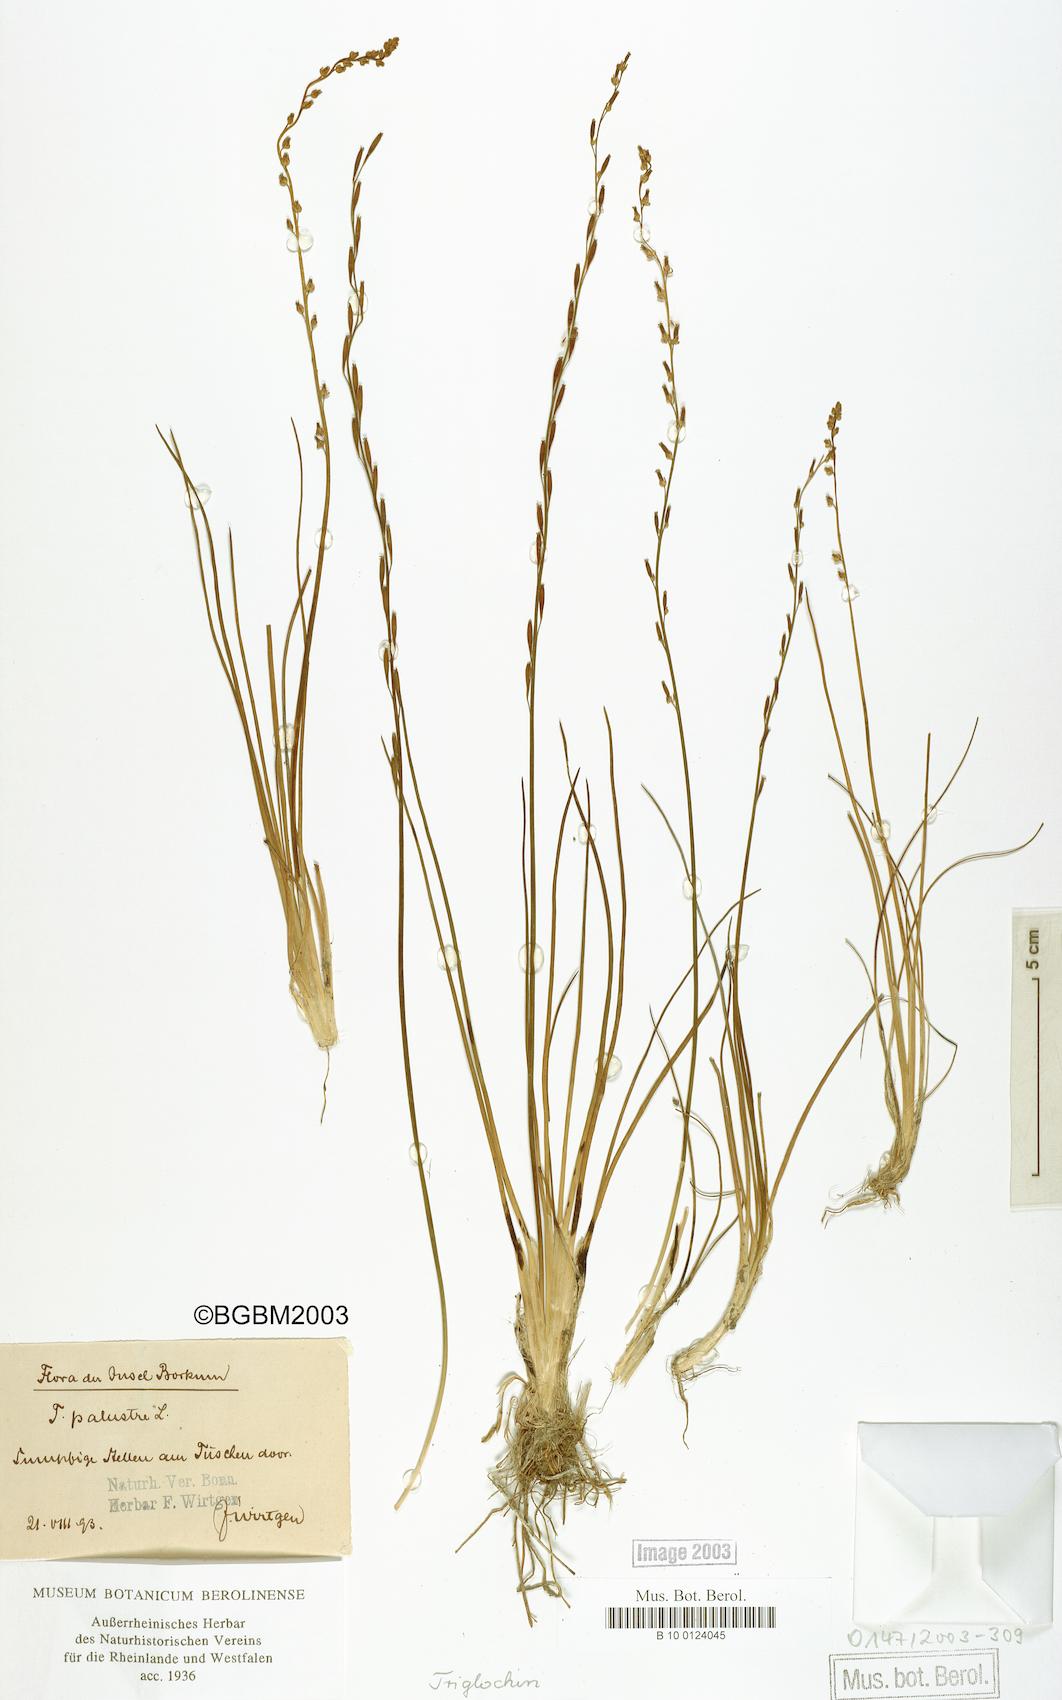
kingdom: Plantae
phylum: Tracheophyta
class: Liliopsida
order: Alismatales
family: Juncaginaceae
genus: Triglochin
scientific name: Triglochin palustris
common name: Marsh arrowgrass
